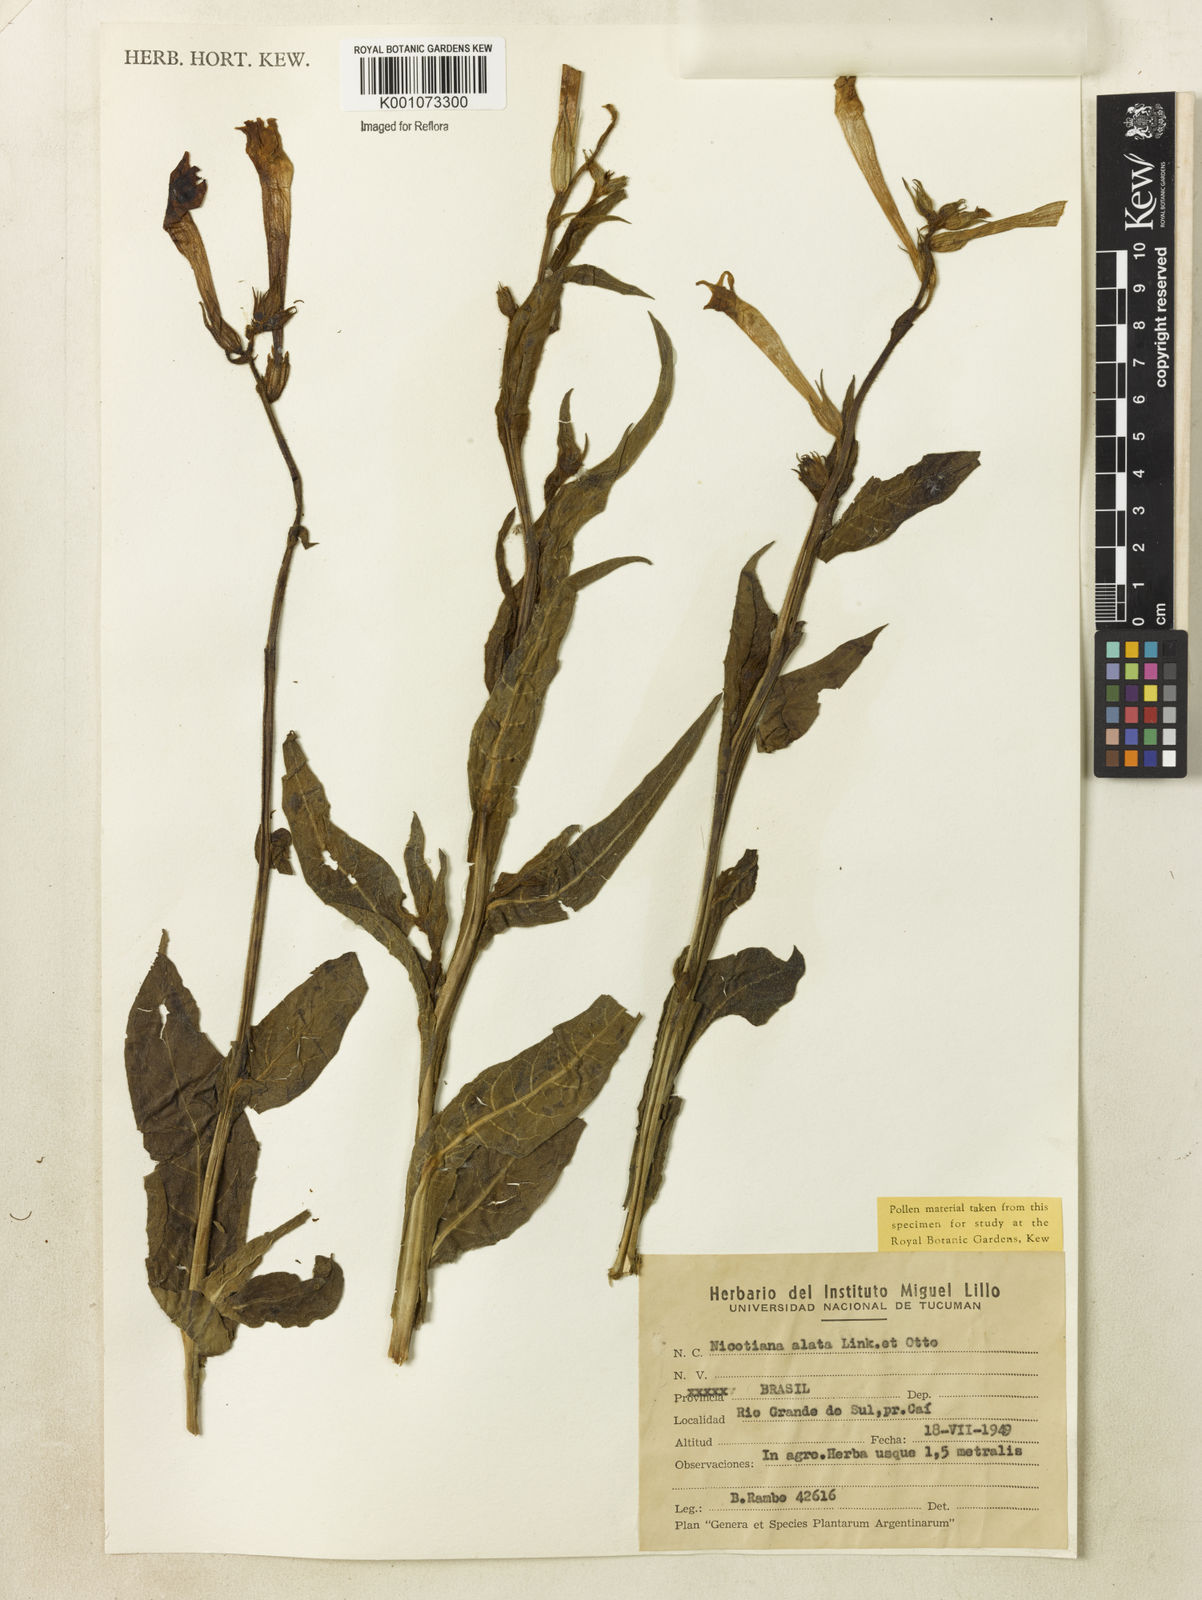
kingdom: Plantae
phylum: Tracheophyta
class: Magnoliopsida
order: Solanales
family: Solanaceae
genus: Nicotiana
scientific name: Nicotiana alata
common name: Jasmine tobacco
